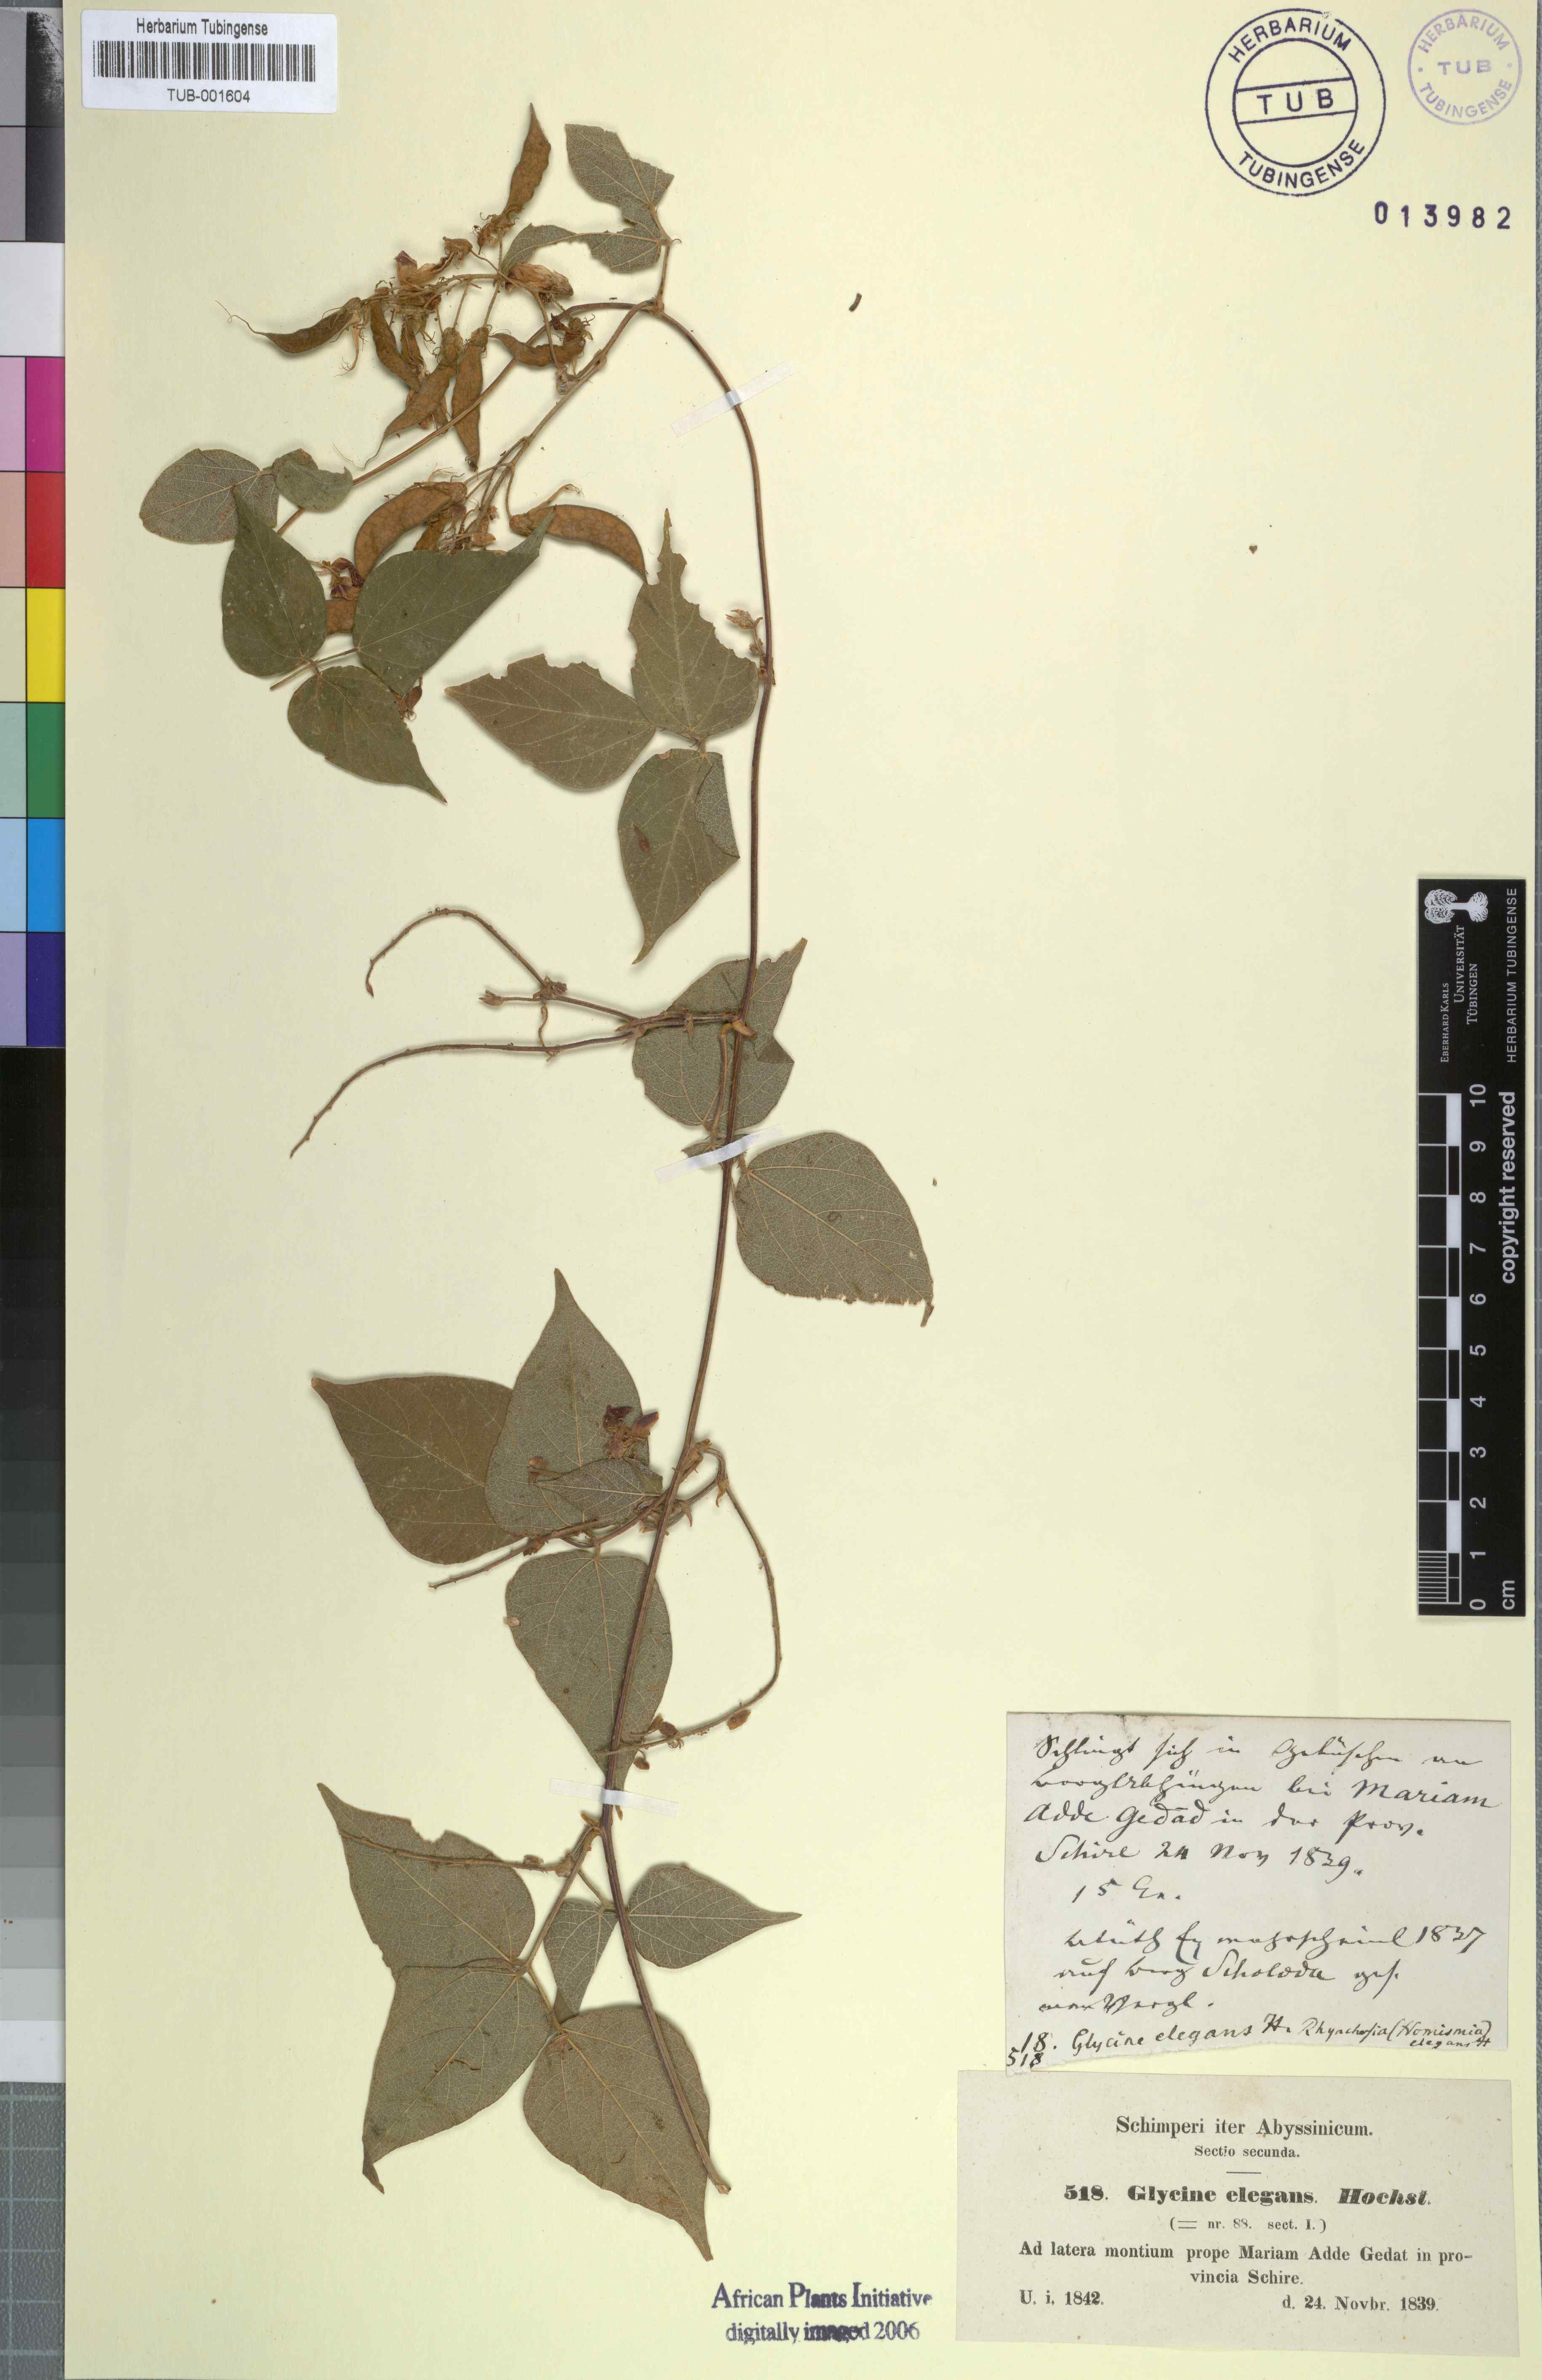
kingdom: Plantae
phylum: Tracheophyta
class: Magnoliopsida
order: Fabales
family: Fabaceae
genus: Rhynchosia
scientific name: Rhynchosia elegans
